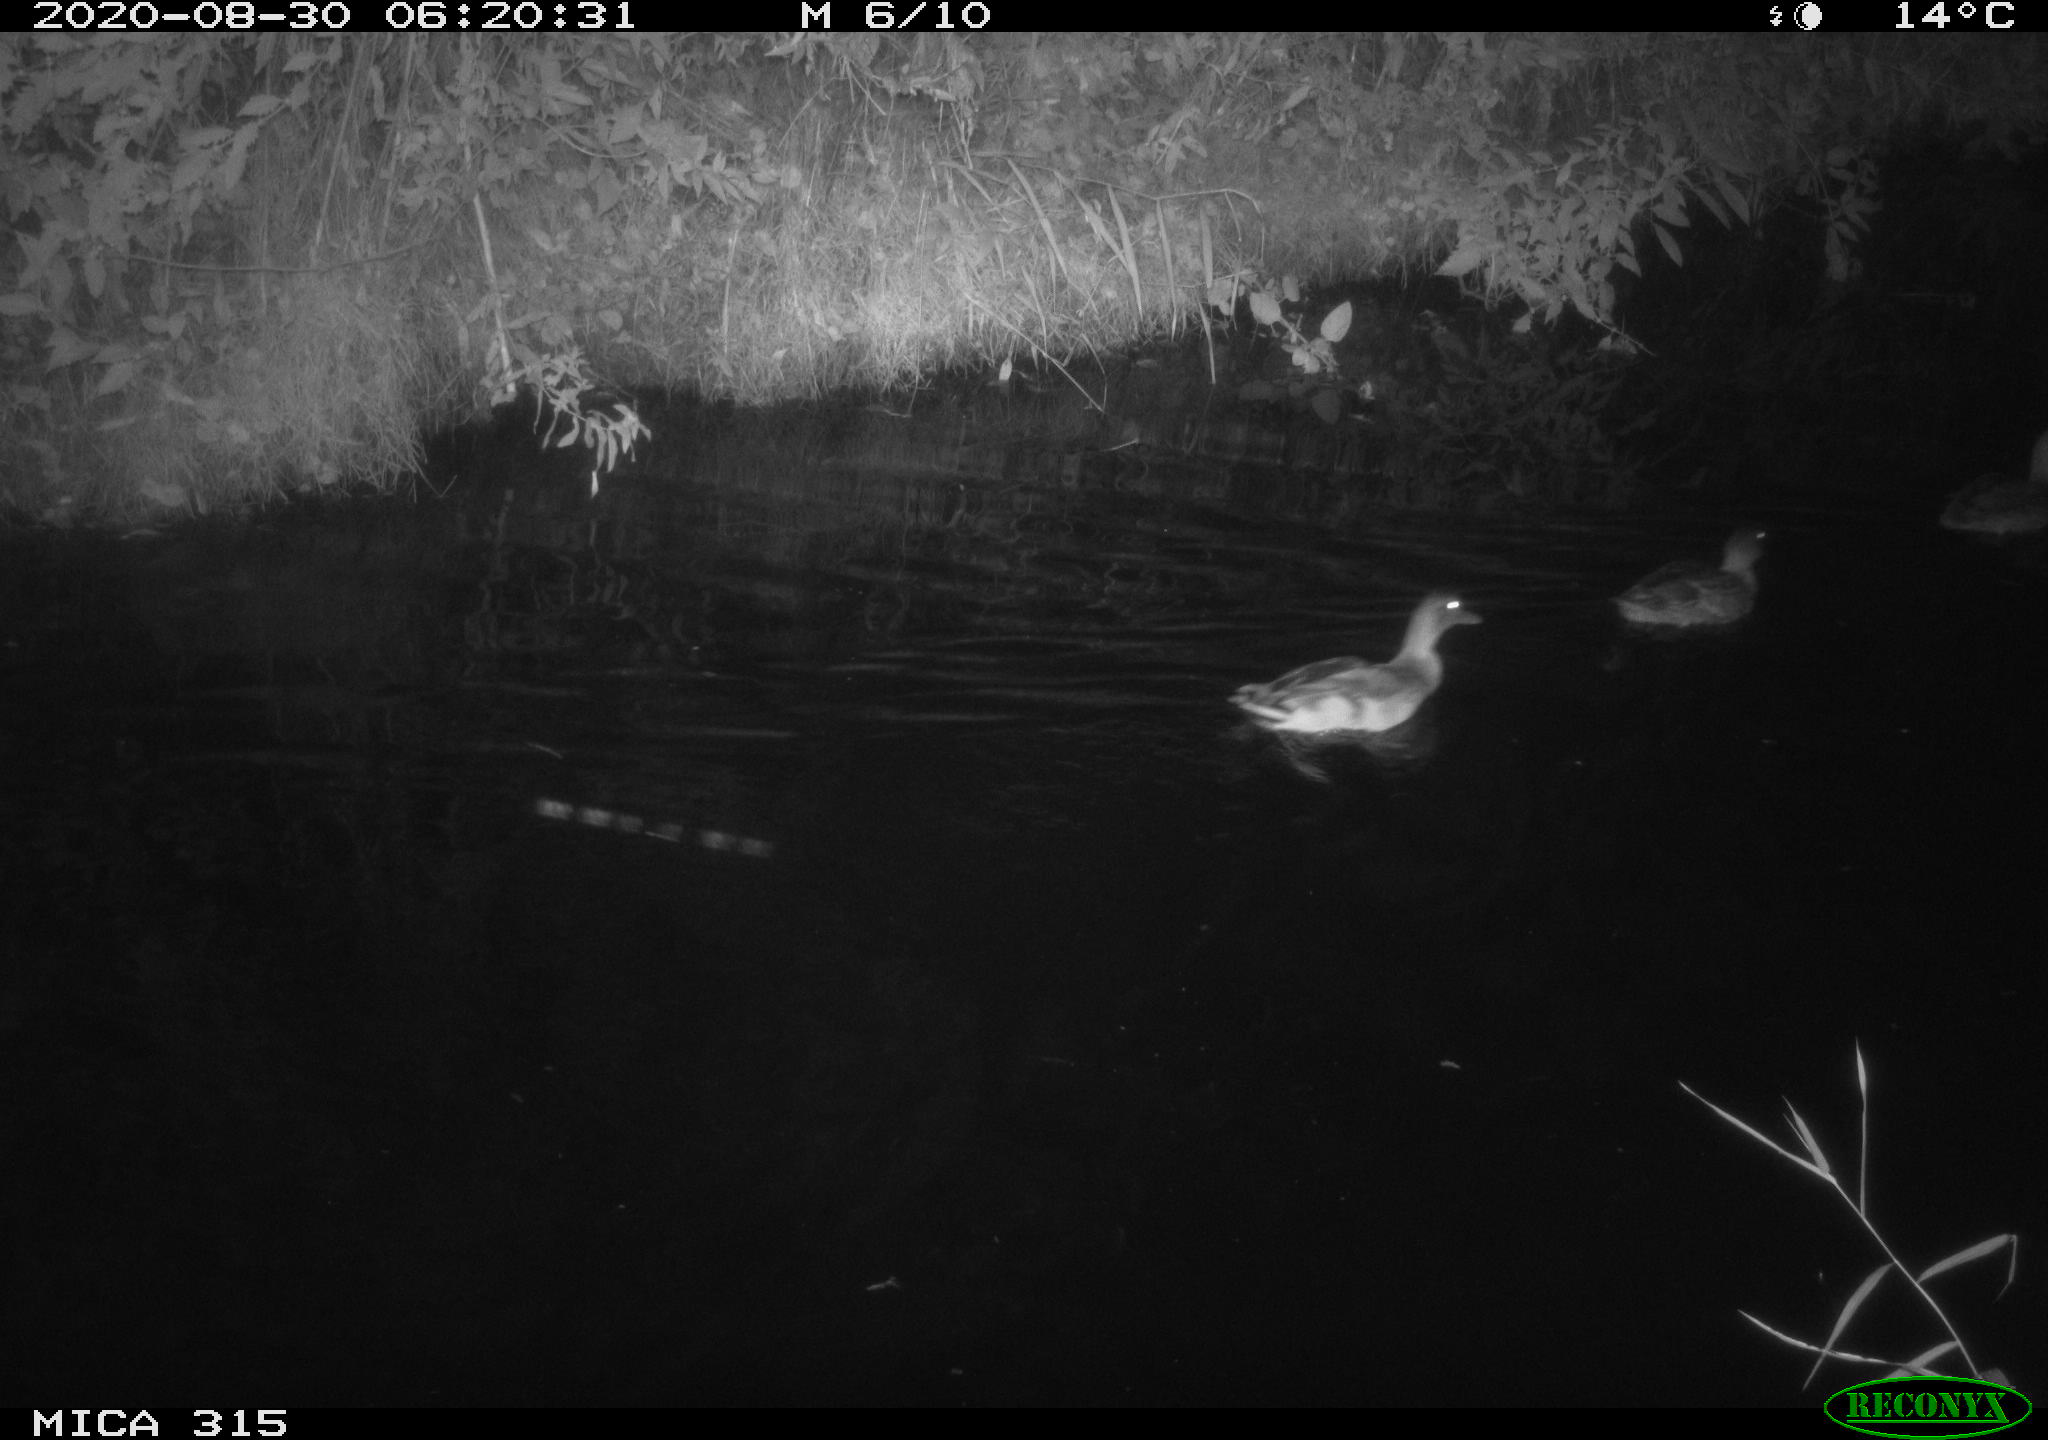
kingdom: Animalia
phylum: Chordata
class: Aves
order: Anseriformes
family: Anatidae
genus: Anas
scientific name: Anas platyrhynchos
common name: Mallard
